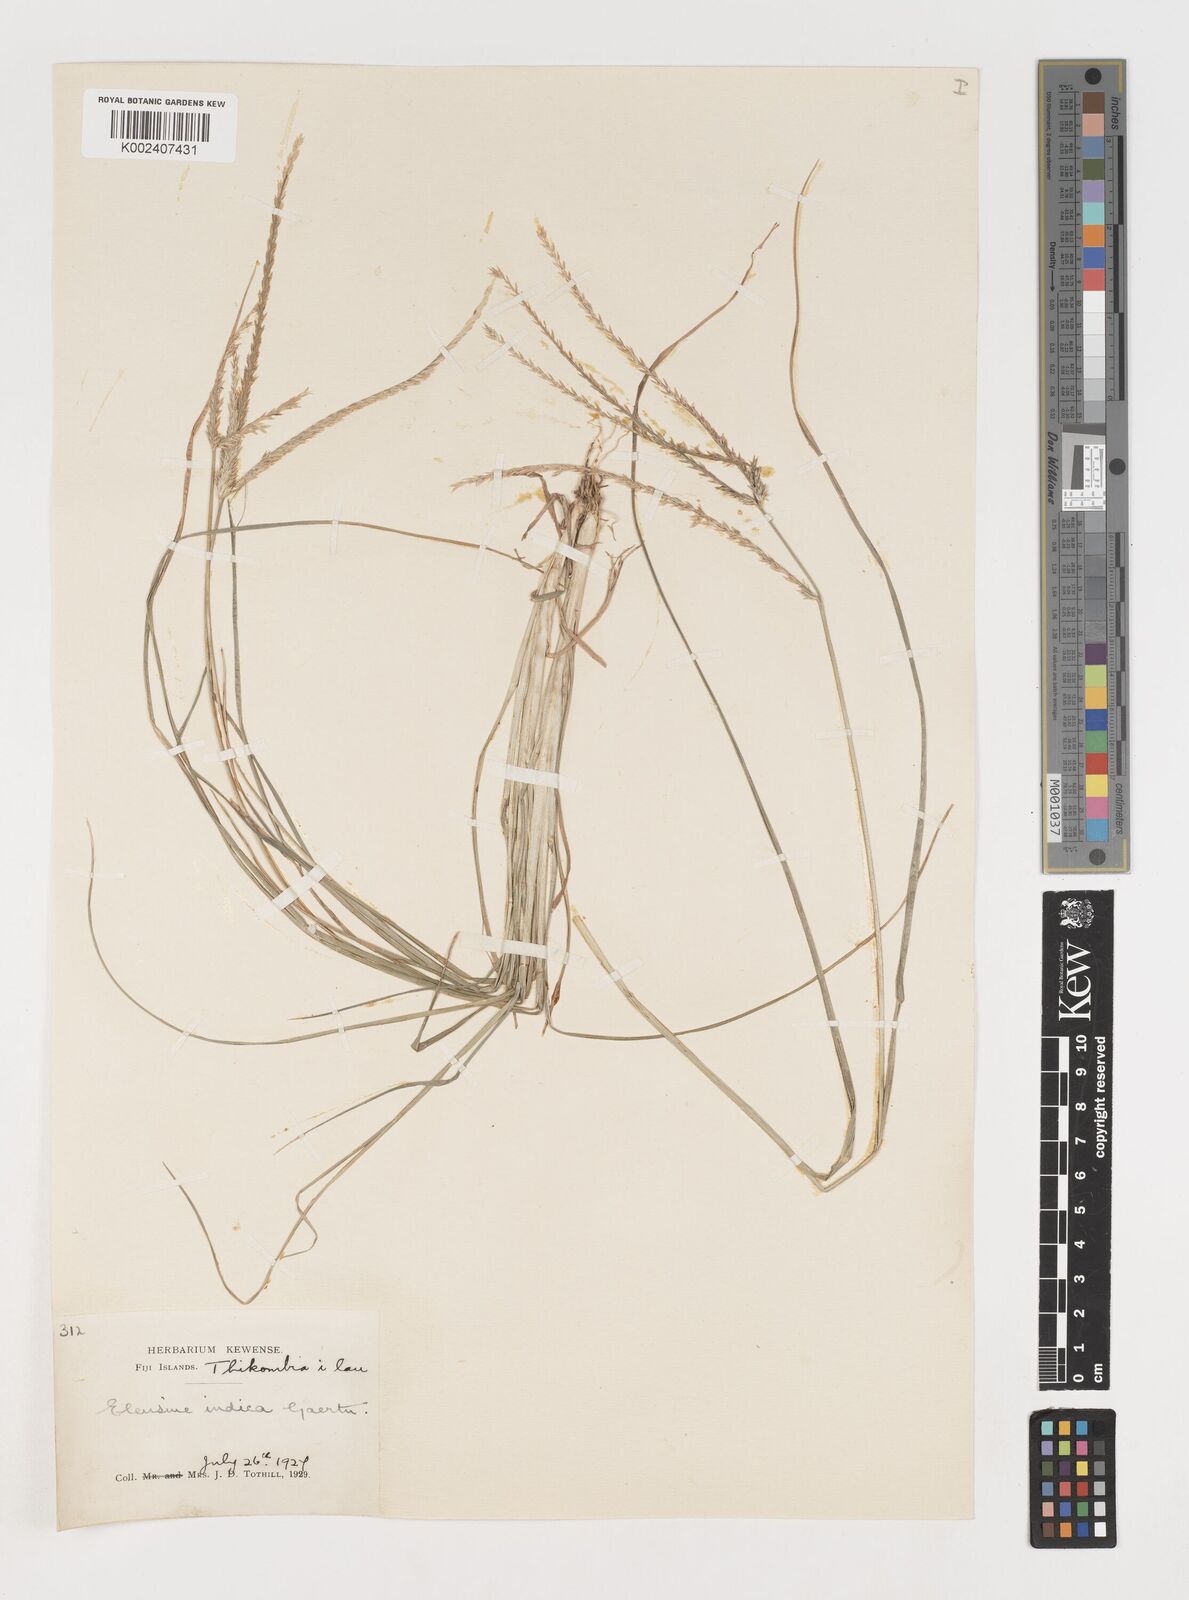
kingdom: Plantae
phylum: Tracheophyta
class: Liliopsida
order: Poales
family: Poaceae
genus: Eleusine
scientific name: Eleusine indica
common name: Yard-grass
